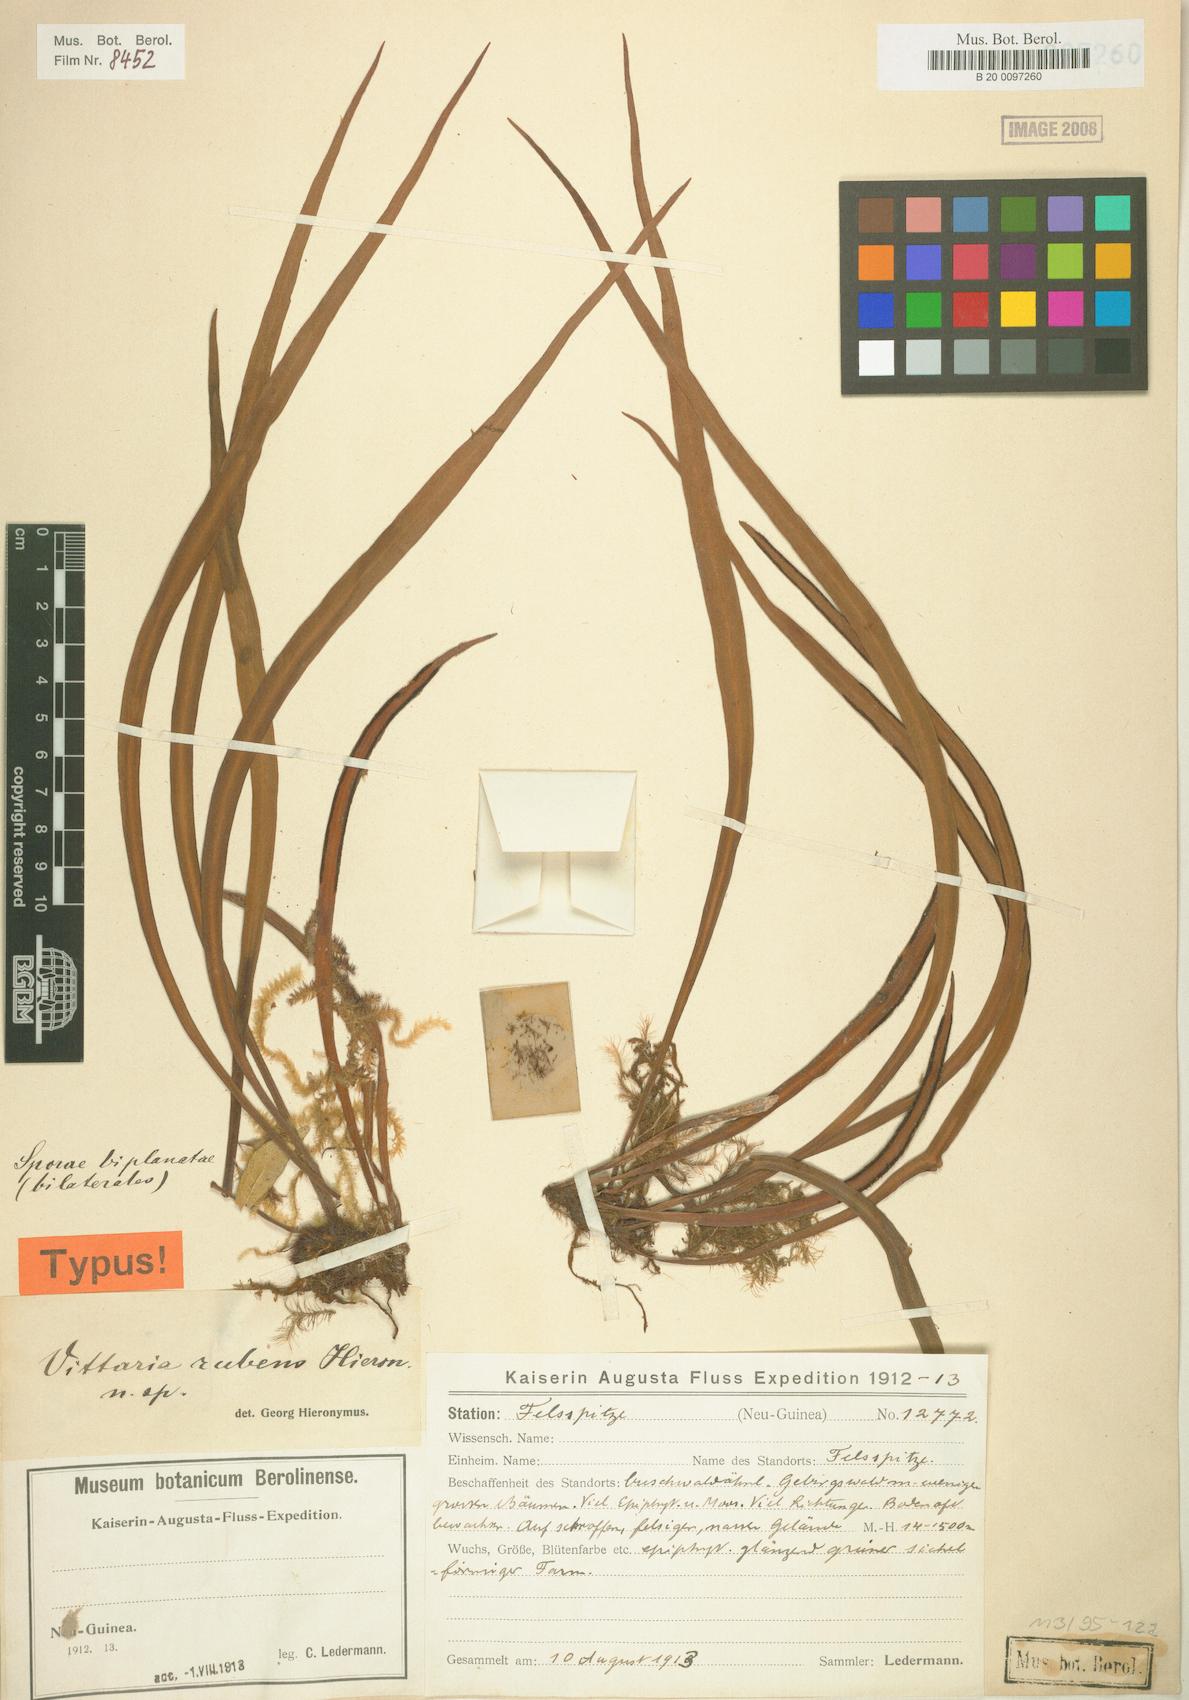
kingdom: Plantae
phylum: Tracheophyta
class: Polypodiopsida
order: Polypodiales
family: Pteridaceae
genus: Haplopteris
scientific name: Haplopteris elongata
